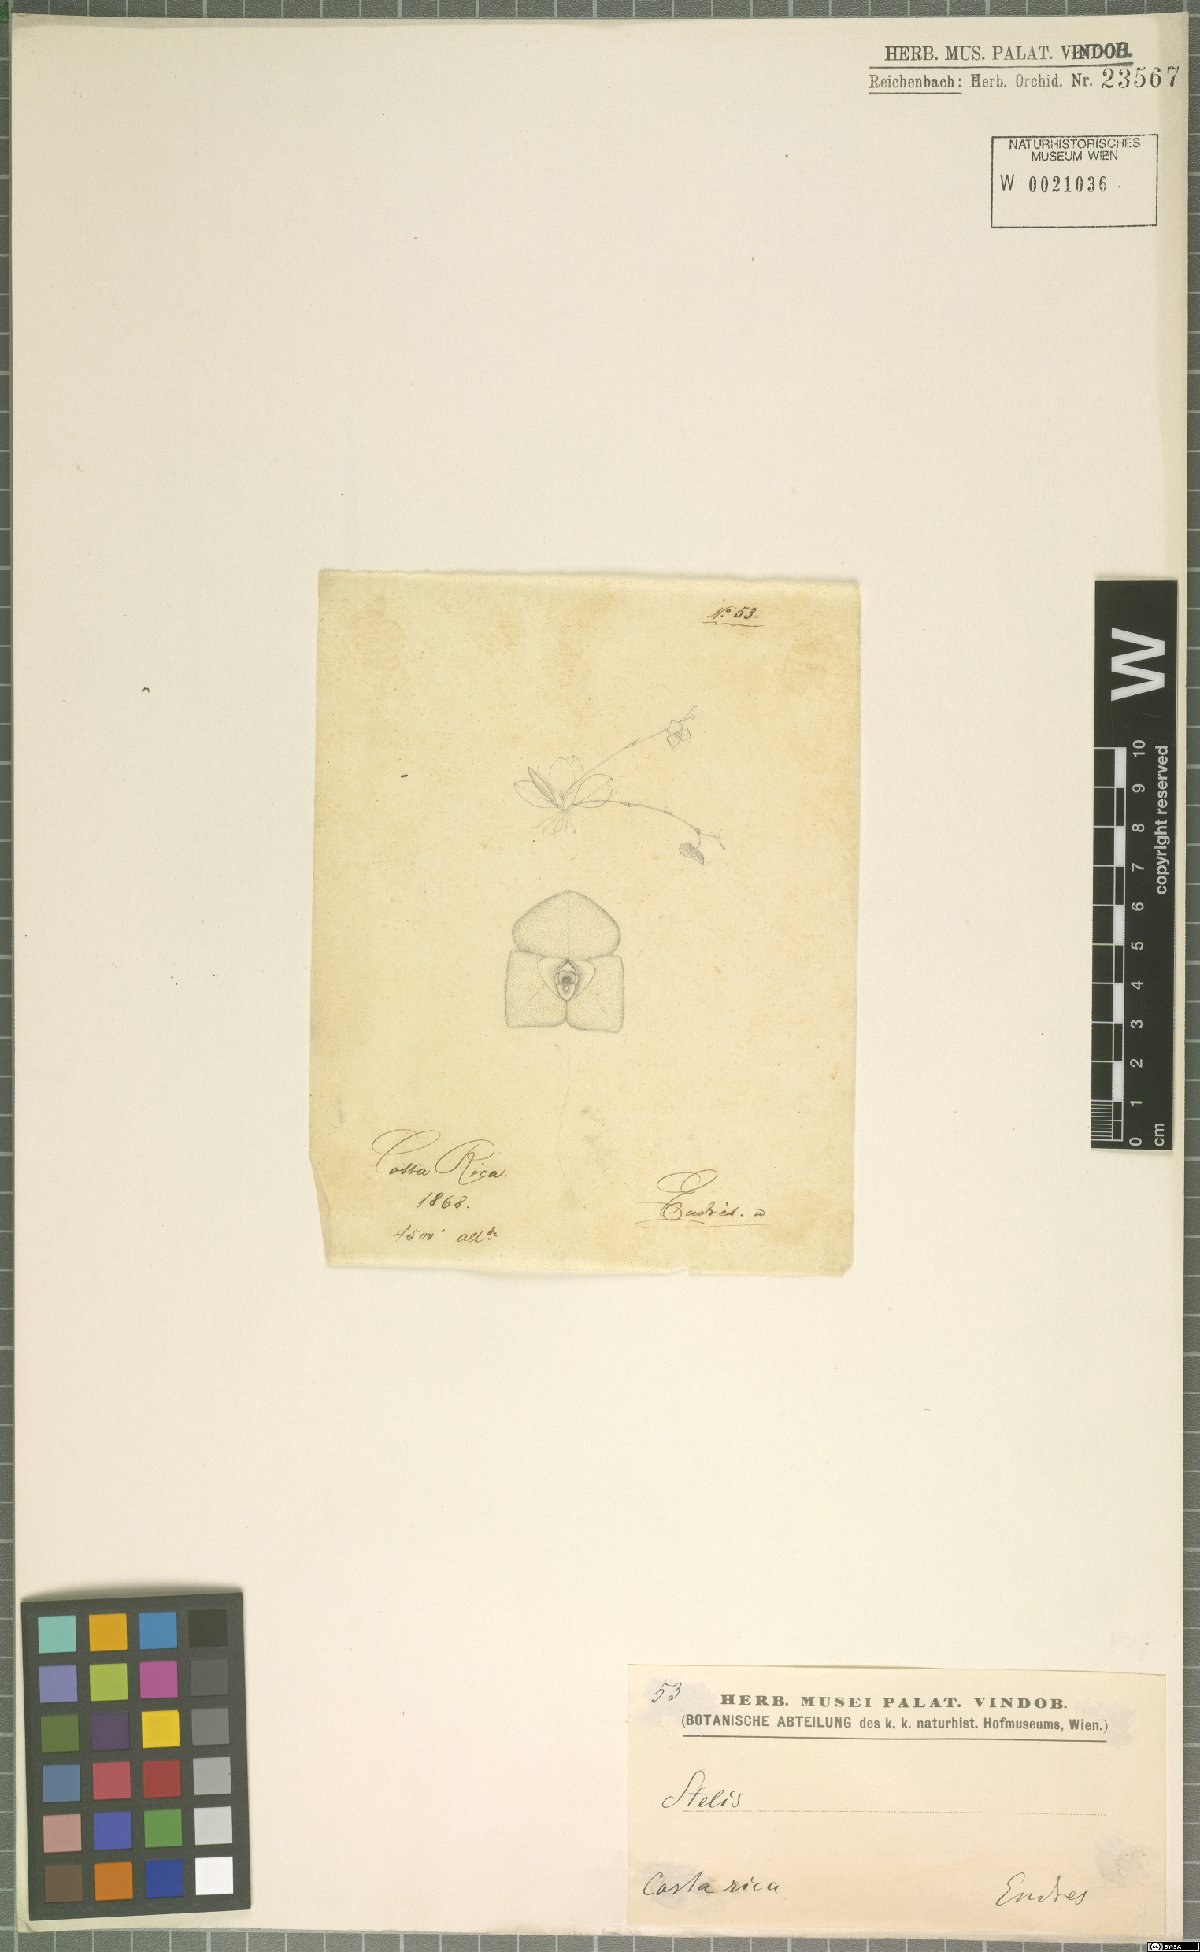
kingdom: Plantae
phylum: Tracheophyta
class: Liliopsida
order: Asparagales
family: Orchidaceae
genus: Stelis
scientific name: Stelis
